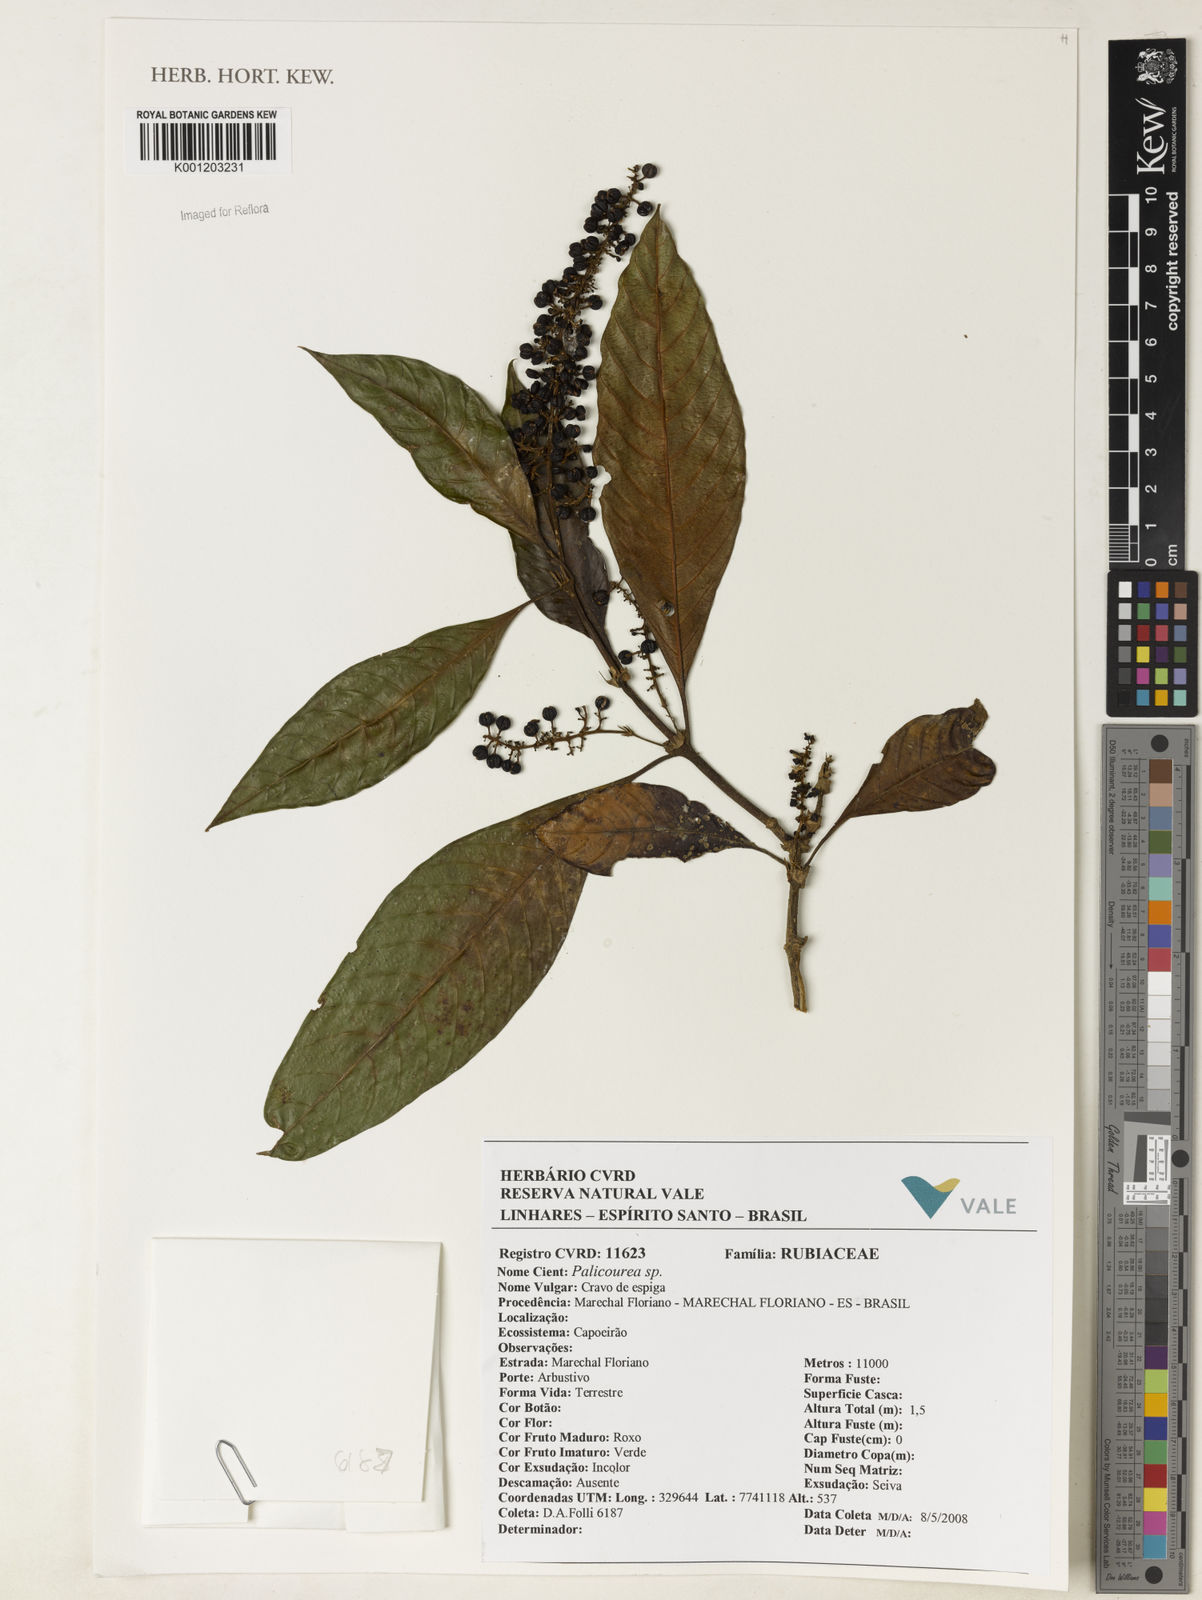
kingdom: Plantae
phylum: Tracheophyta
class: Magnoliopsida
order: Gentianales
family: Rubiaceae
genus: Palicourea
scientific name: Palicourea
